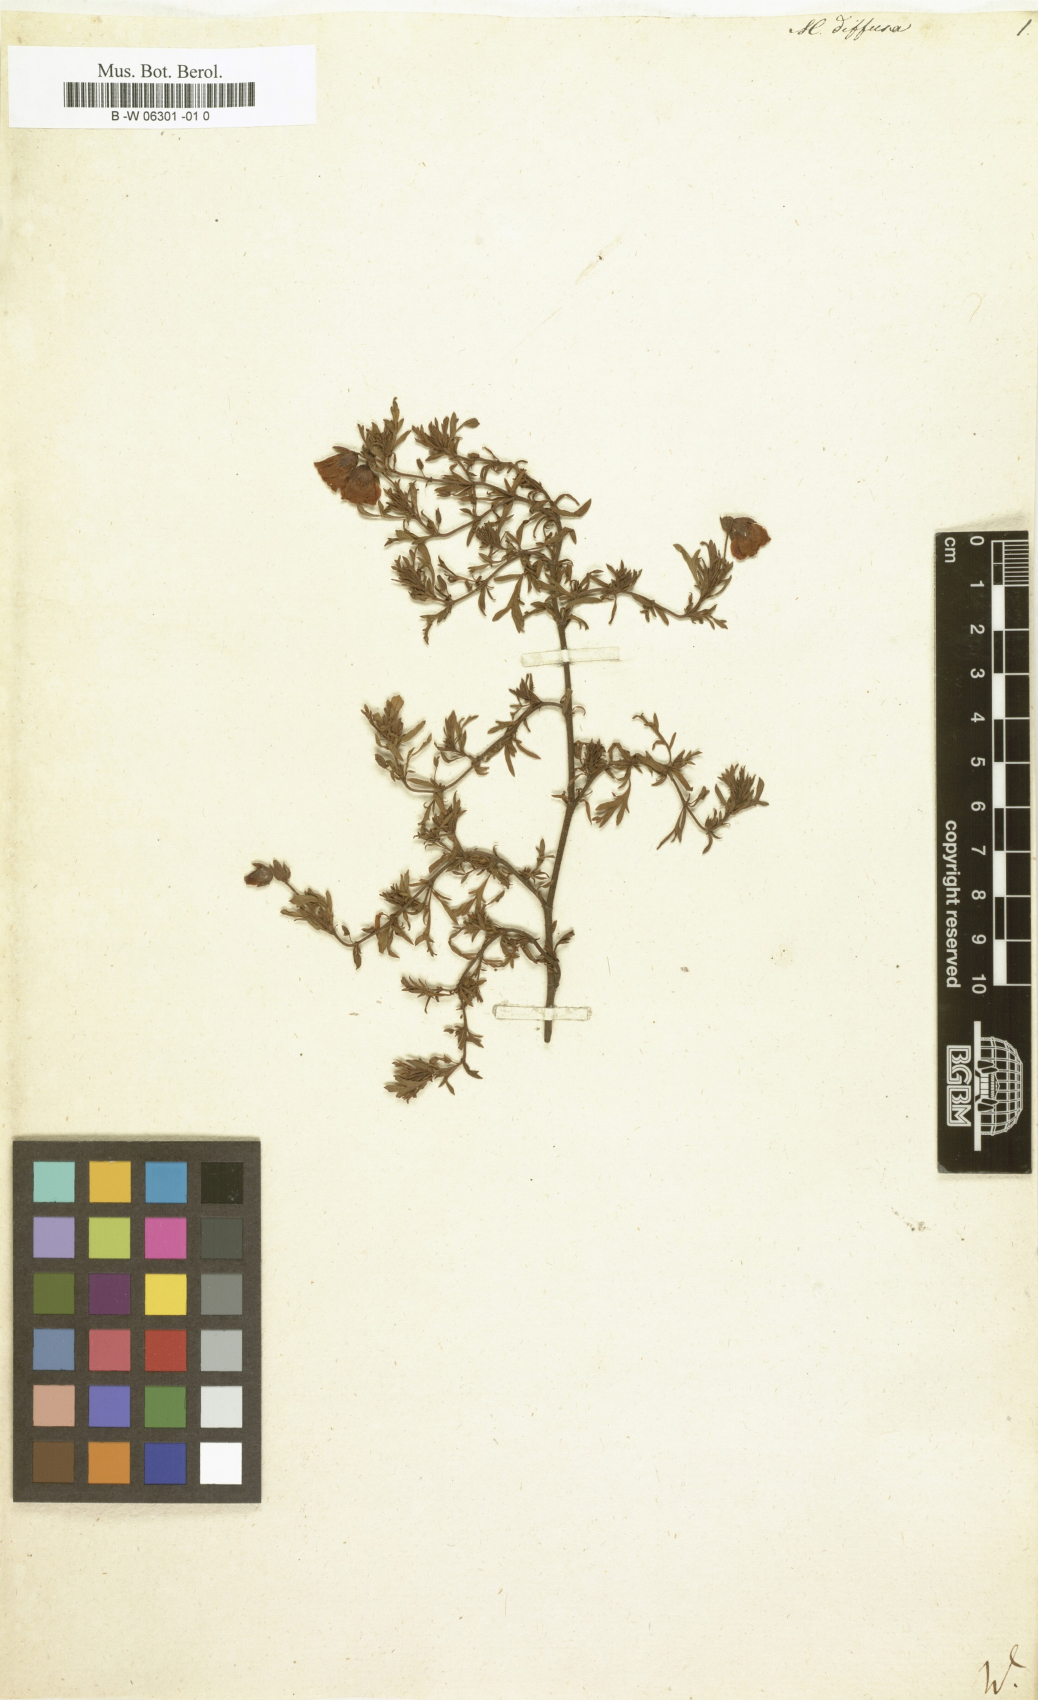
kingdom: Plantae
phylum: Tracheophyta
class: Magnoliopsida
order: Malvales
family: Malvaceae
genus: Hermannia
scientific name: Hermannia
